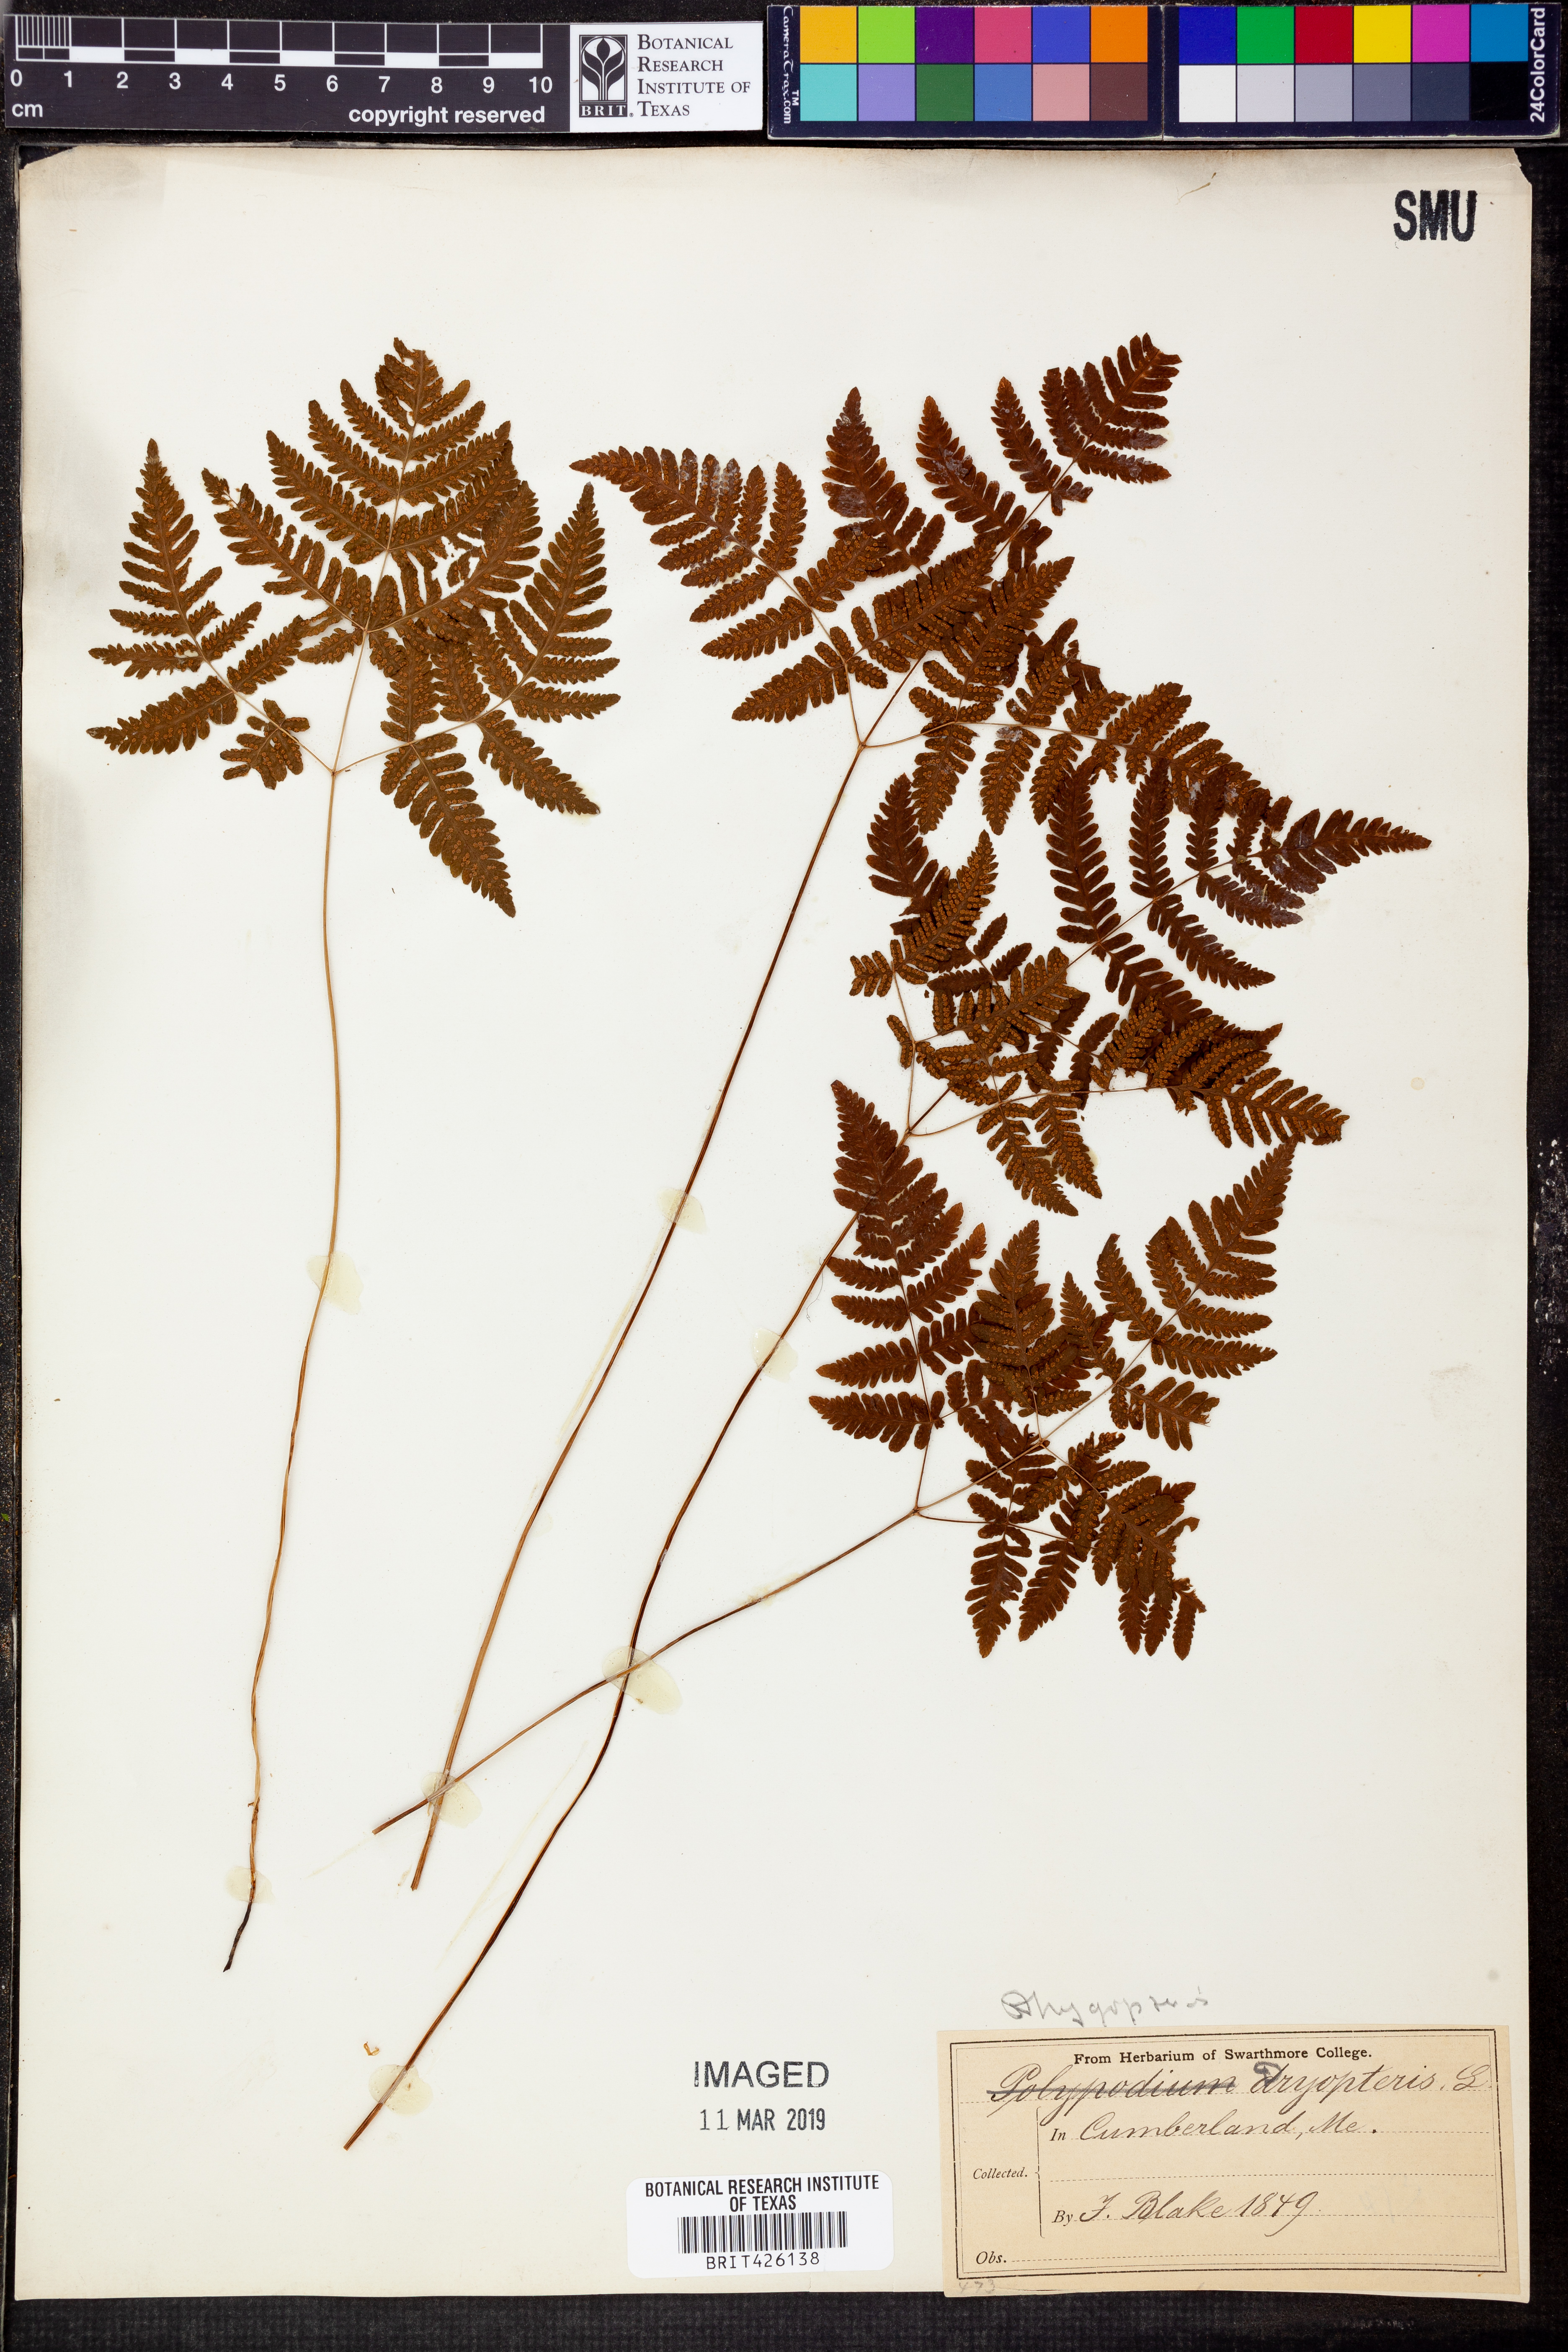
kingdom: Plantae
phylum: Tracheophyta
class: Polypodiopsida
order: Polypodiales
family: Dryopteridaceae
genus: Dryopteris
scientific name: Dryopteris
